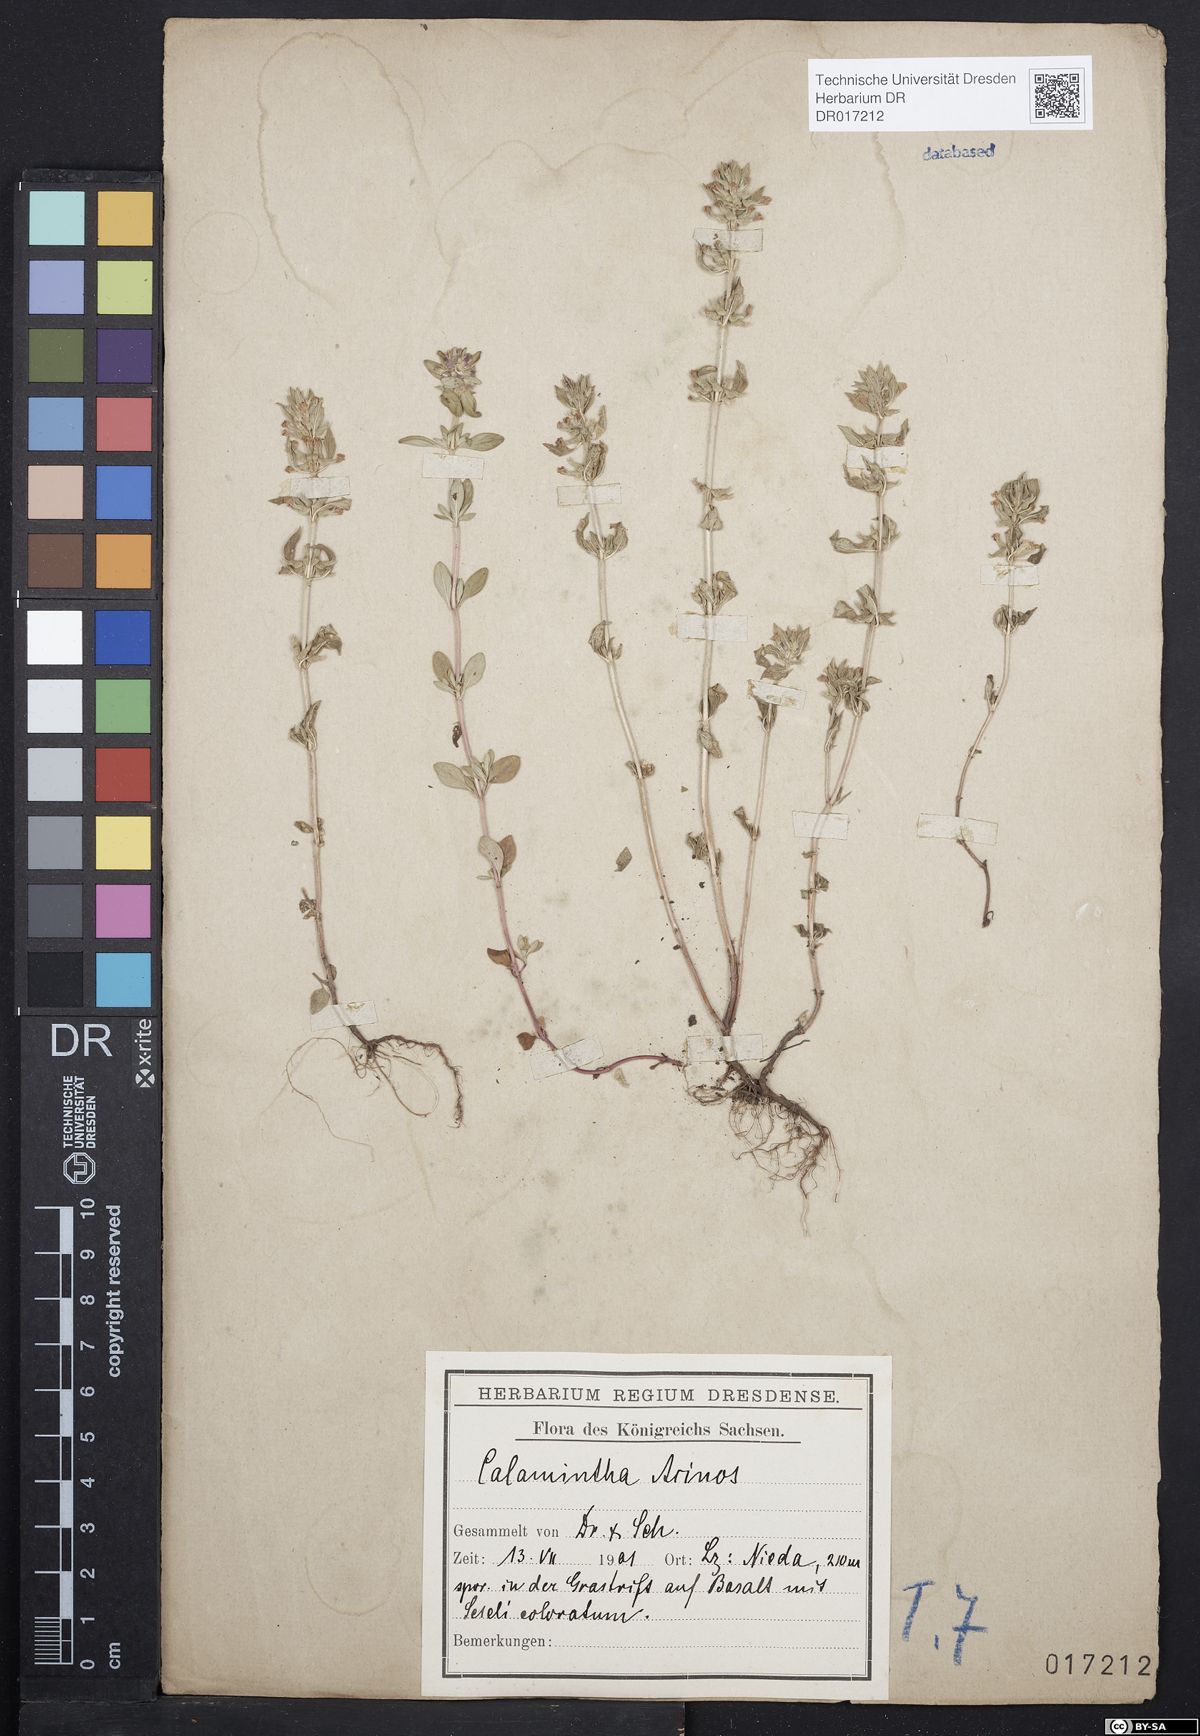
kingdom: Plantae
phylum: Tracheophyta
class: Magnoliopsida
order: Lamiales
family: Lamiaceae
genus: Clinopodium
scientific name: Clinopodium acinos
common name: Basil thyme
